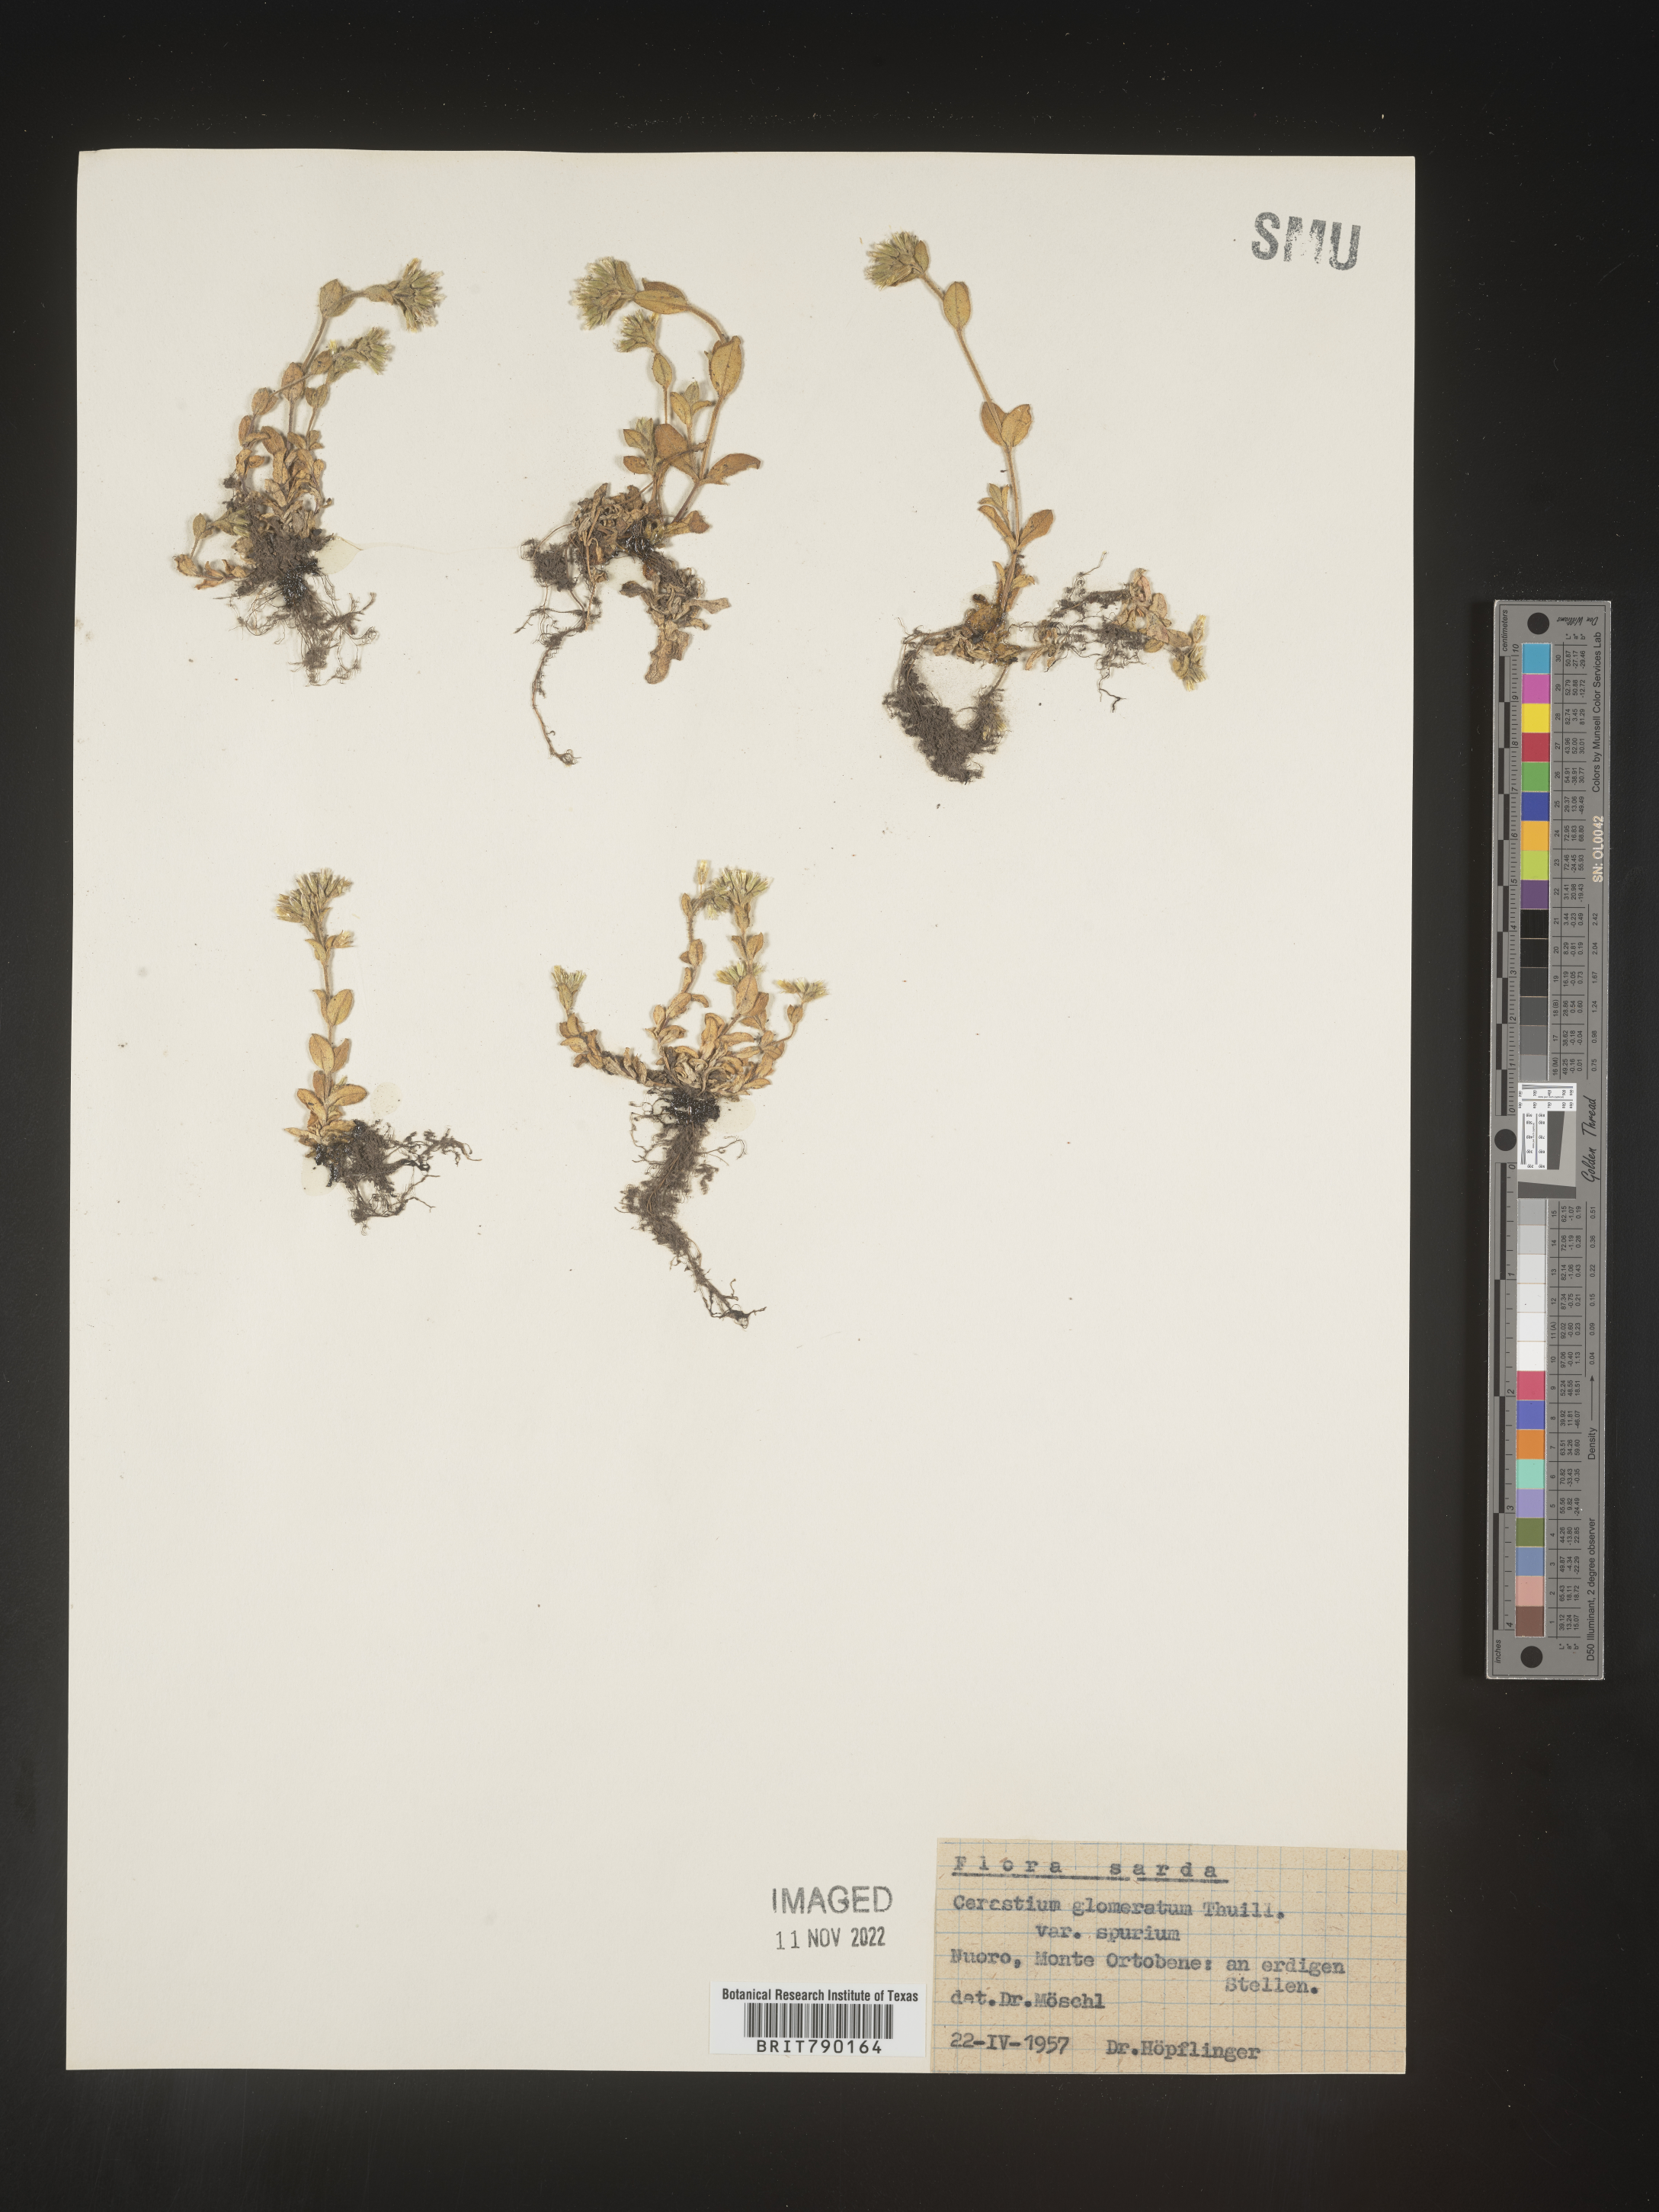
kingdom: Plantae
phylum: Tracheophyta
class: Magnoliopsida
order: Caryophyllales
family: Caryophyllaceae
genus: Cerastium
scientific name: Cerastium
